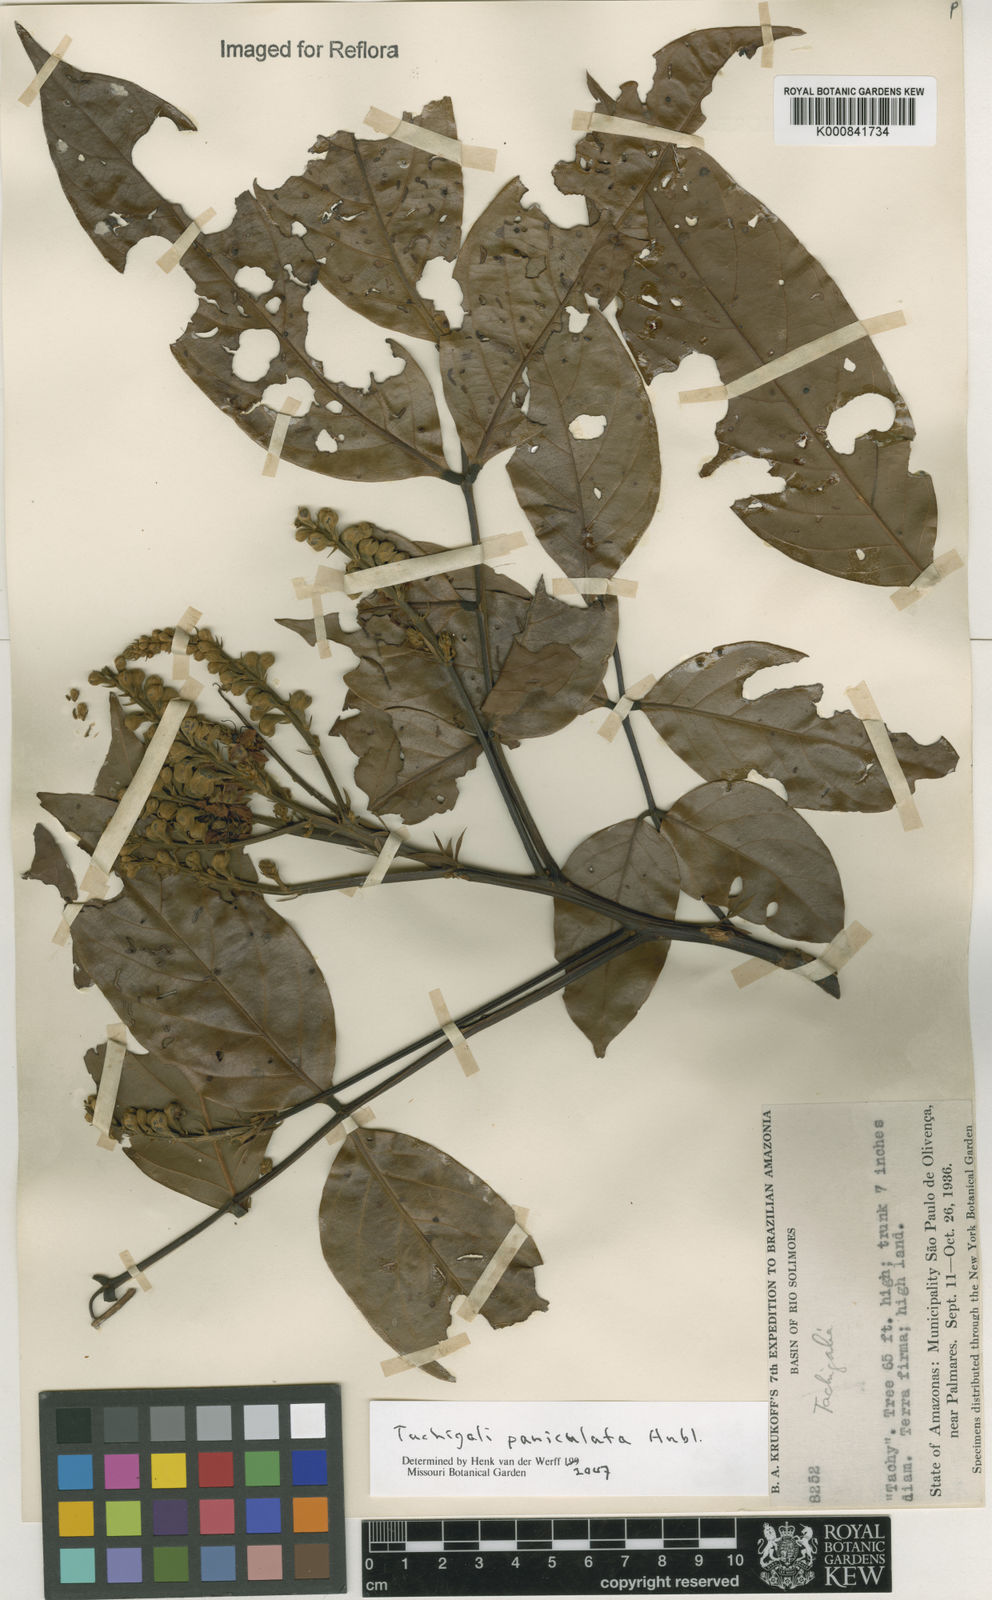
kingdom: Plantae
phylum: Tracheophyta
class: Magnoliopsida
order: Fabales
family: Fabaceae
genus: Tachigali
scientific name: Tachigali paniculata
